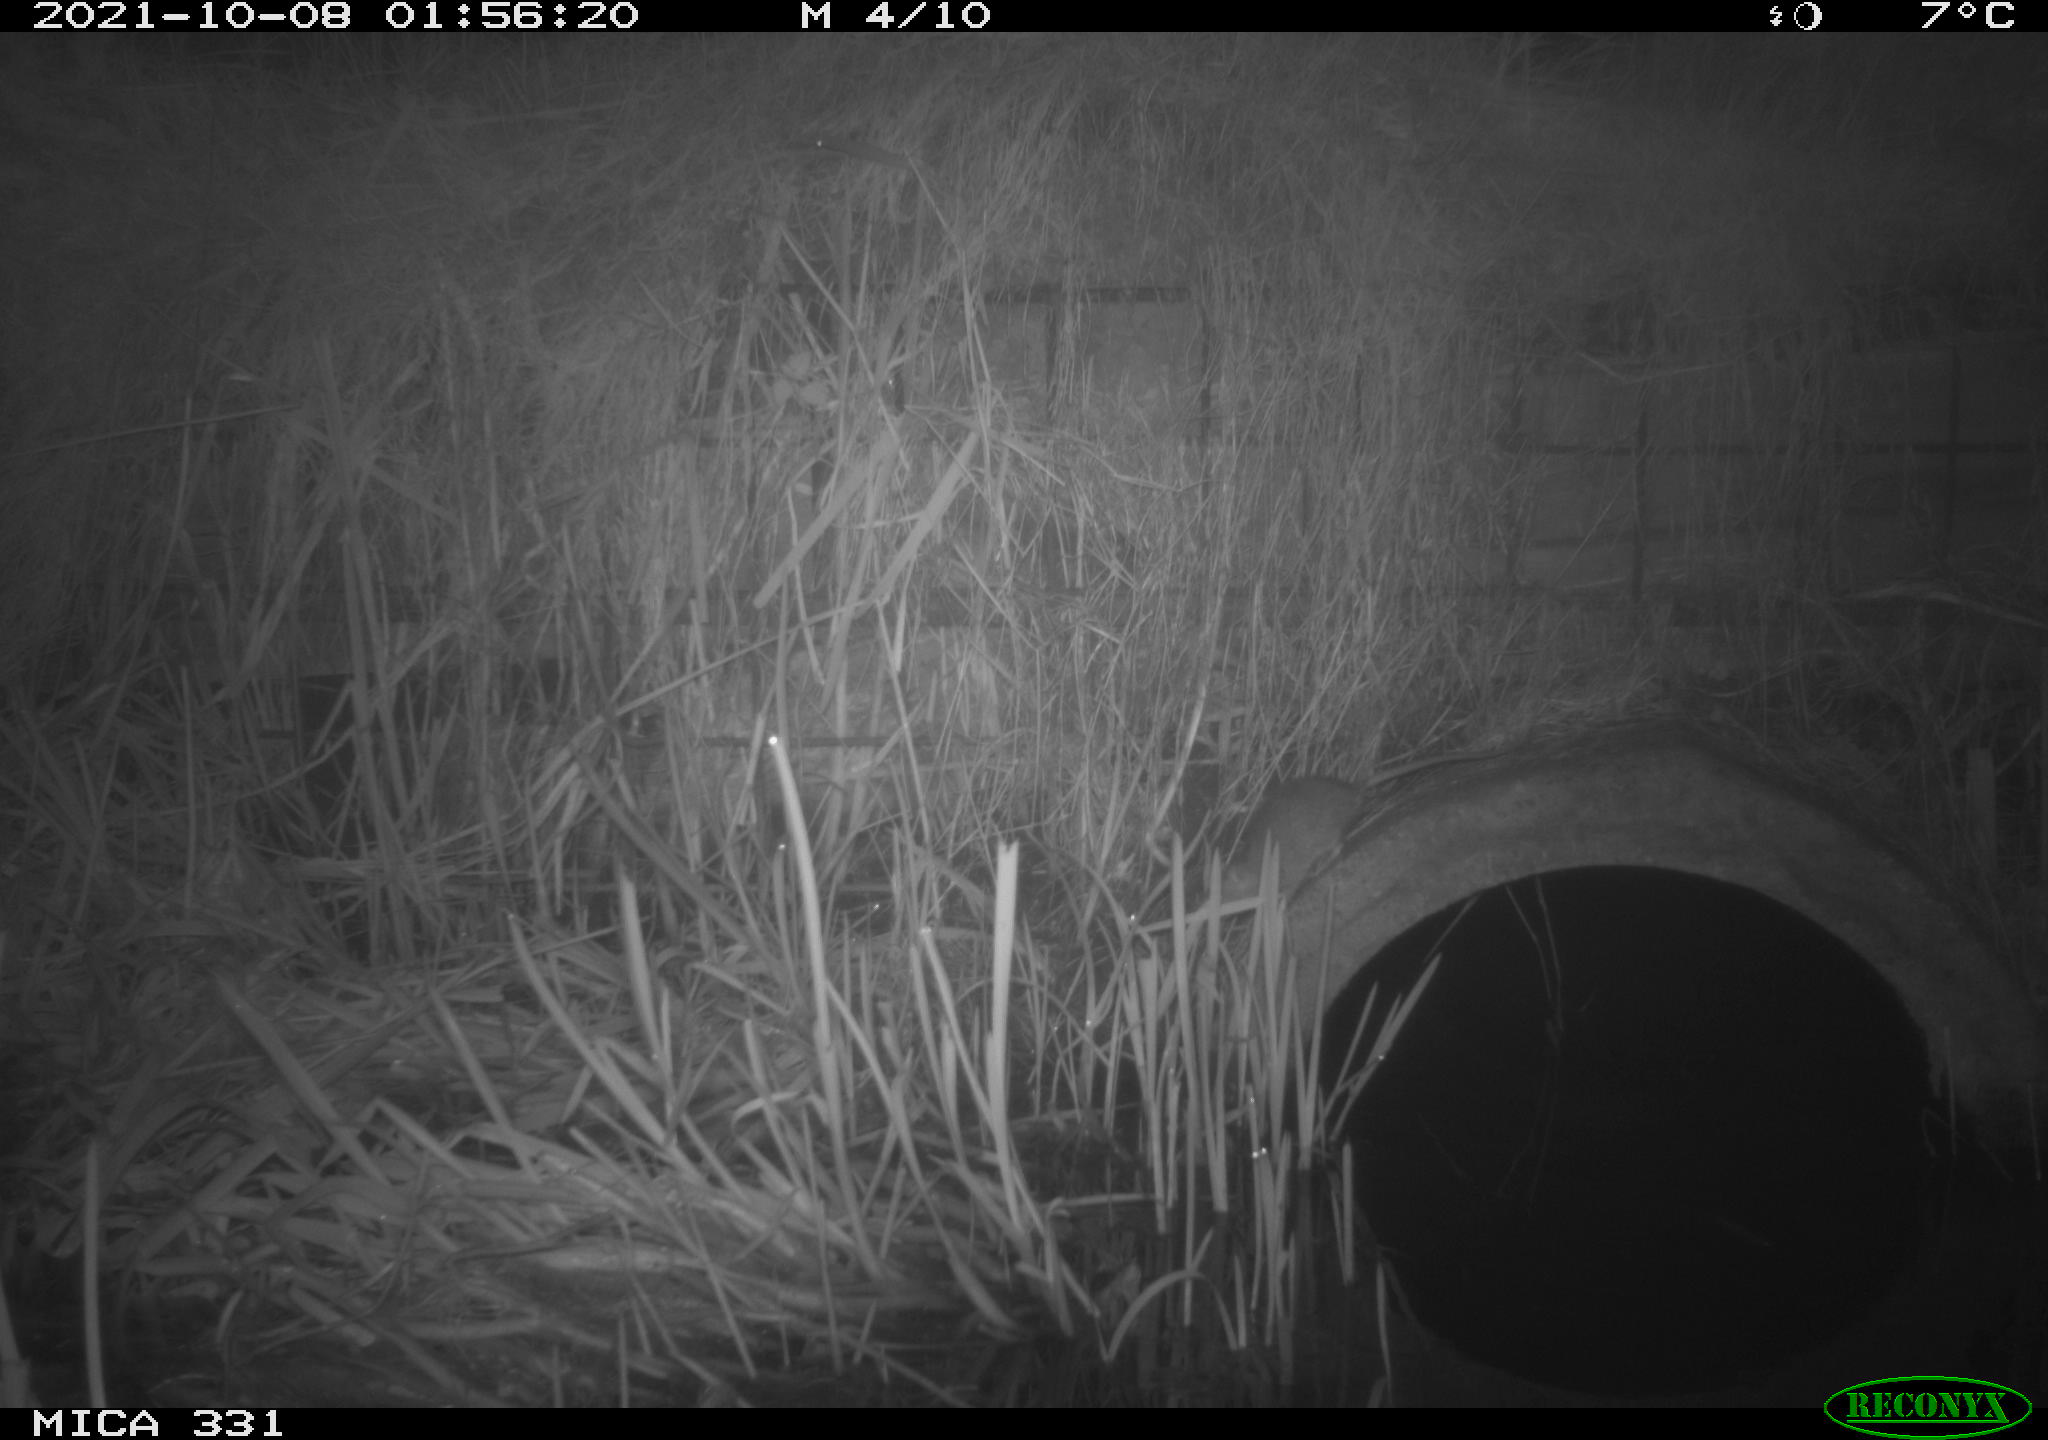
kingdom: Animalia
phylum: Chordata
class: Mammalia
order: Rodentia
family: Muridae
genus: Rattus
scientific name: Rattus norvegicus
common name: Brown rat
